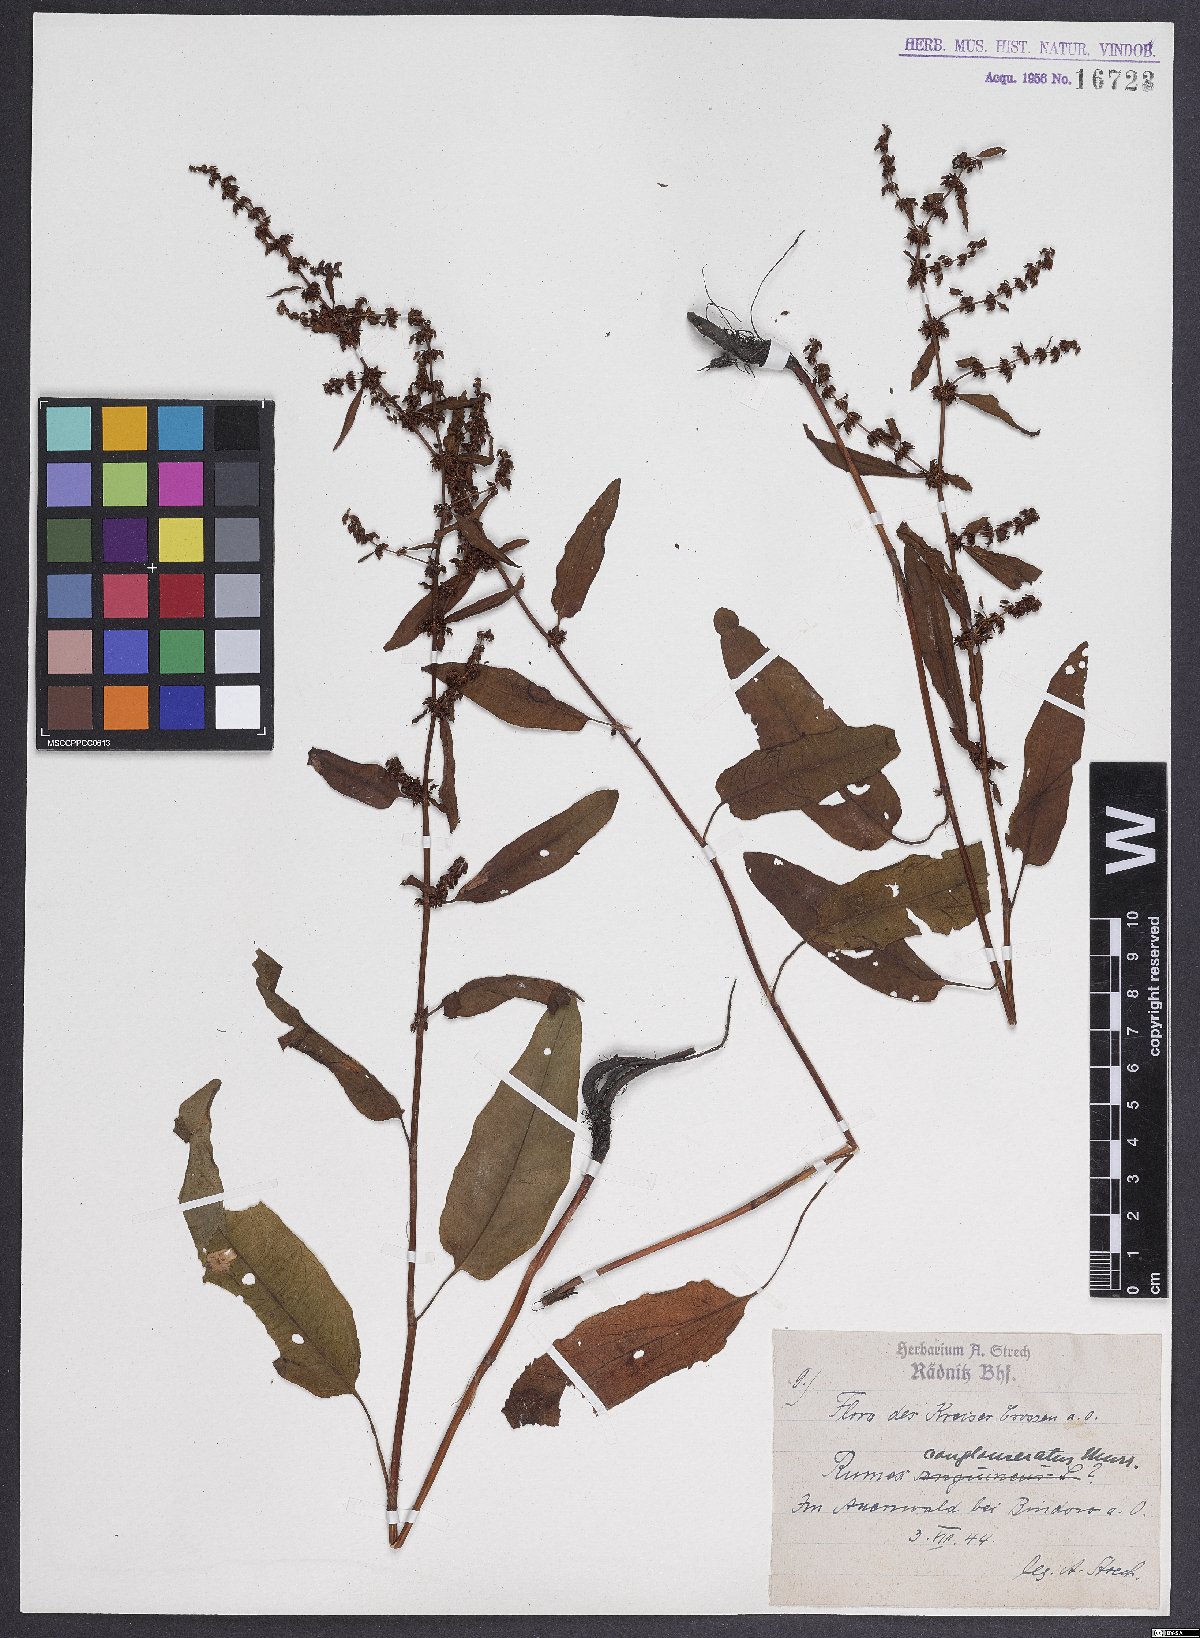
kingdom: Plantae
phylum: Tracheophyta
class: Magnoliopsida
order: Caryophyllales
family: Polygonaceae
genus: Rumex
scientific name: Rumex conglomeratus
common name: Clustered dock
